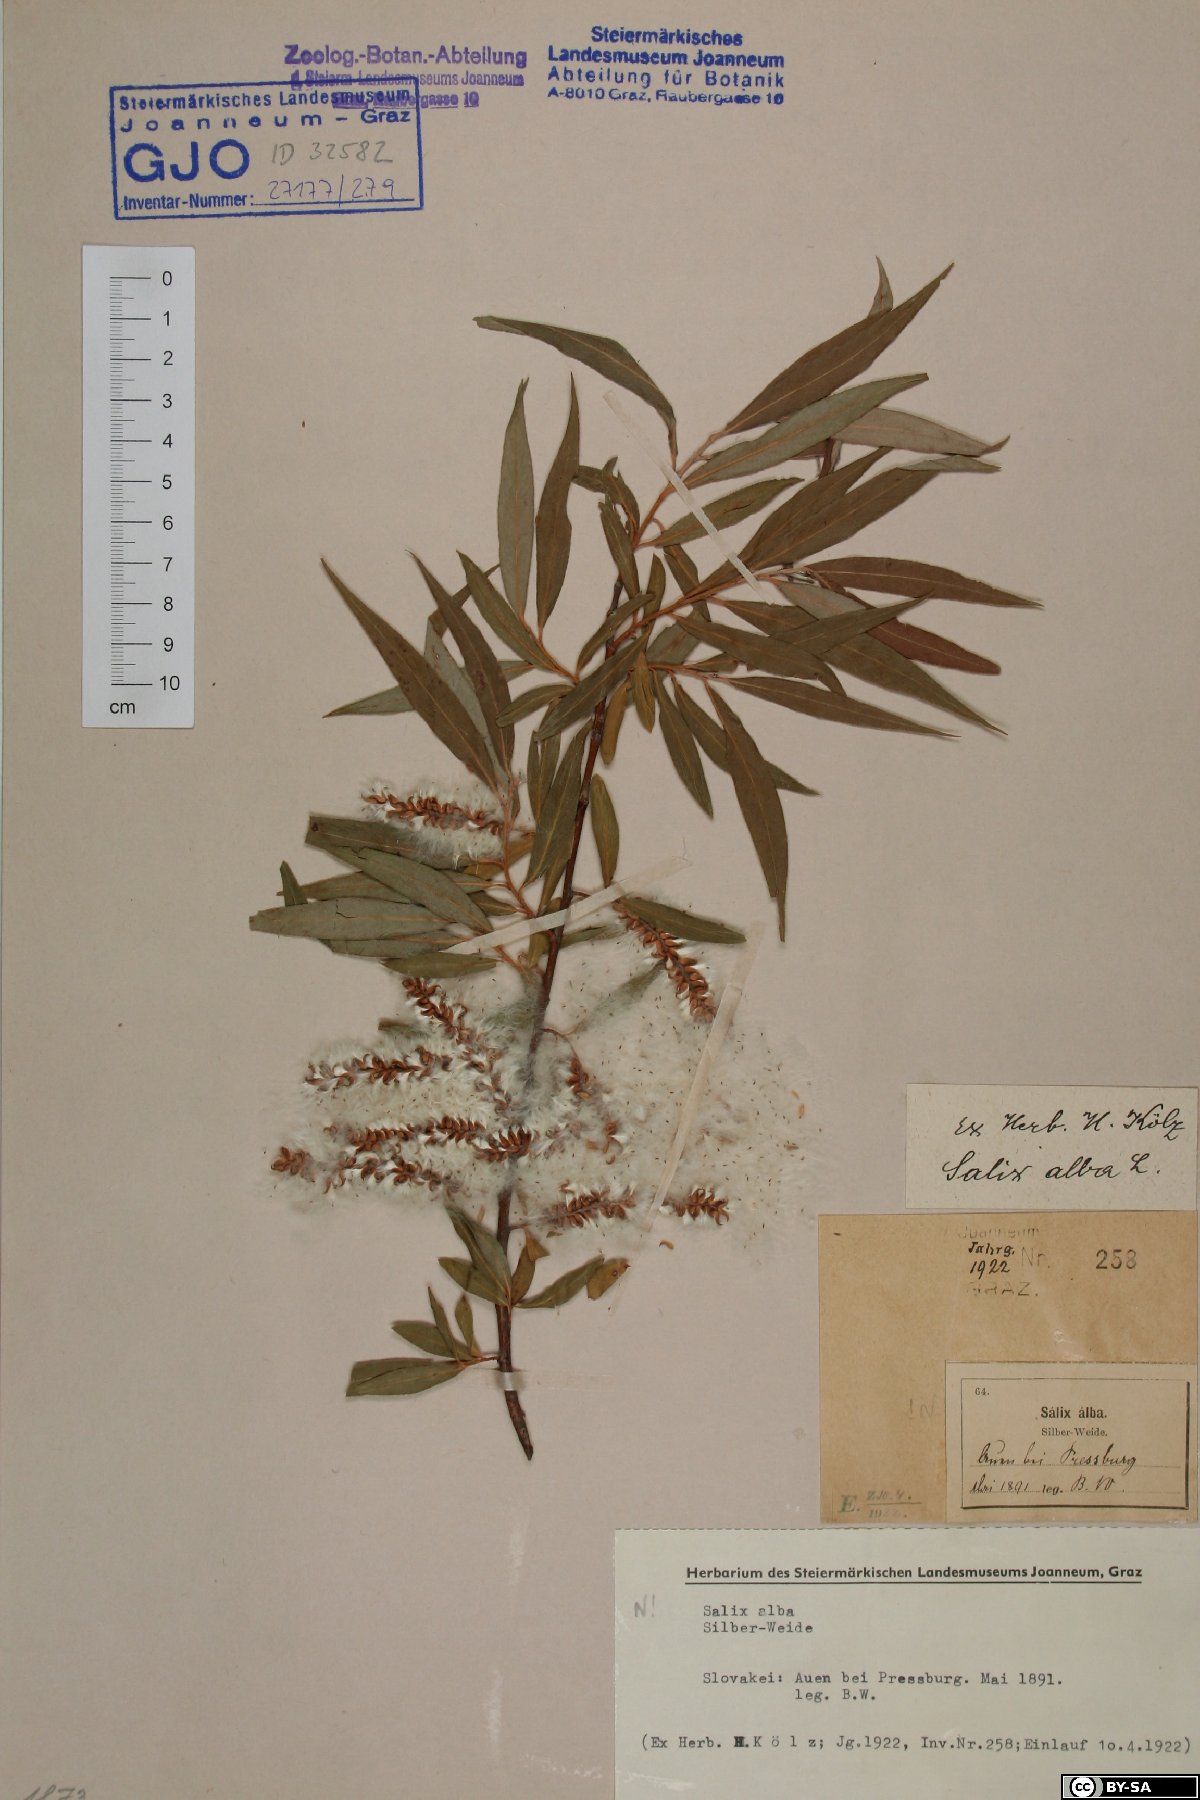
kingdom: Plantae
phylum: Tracheophyta
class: Magnoliopsida
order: Malpighiales
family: Salicaceae
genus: Salix
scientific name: Salix alba
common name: White willow
